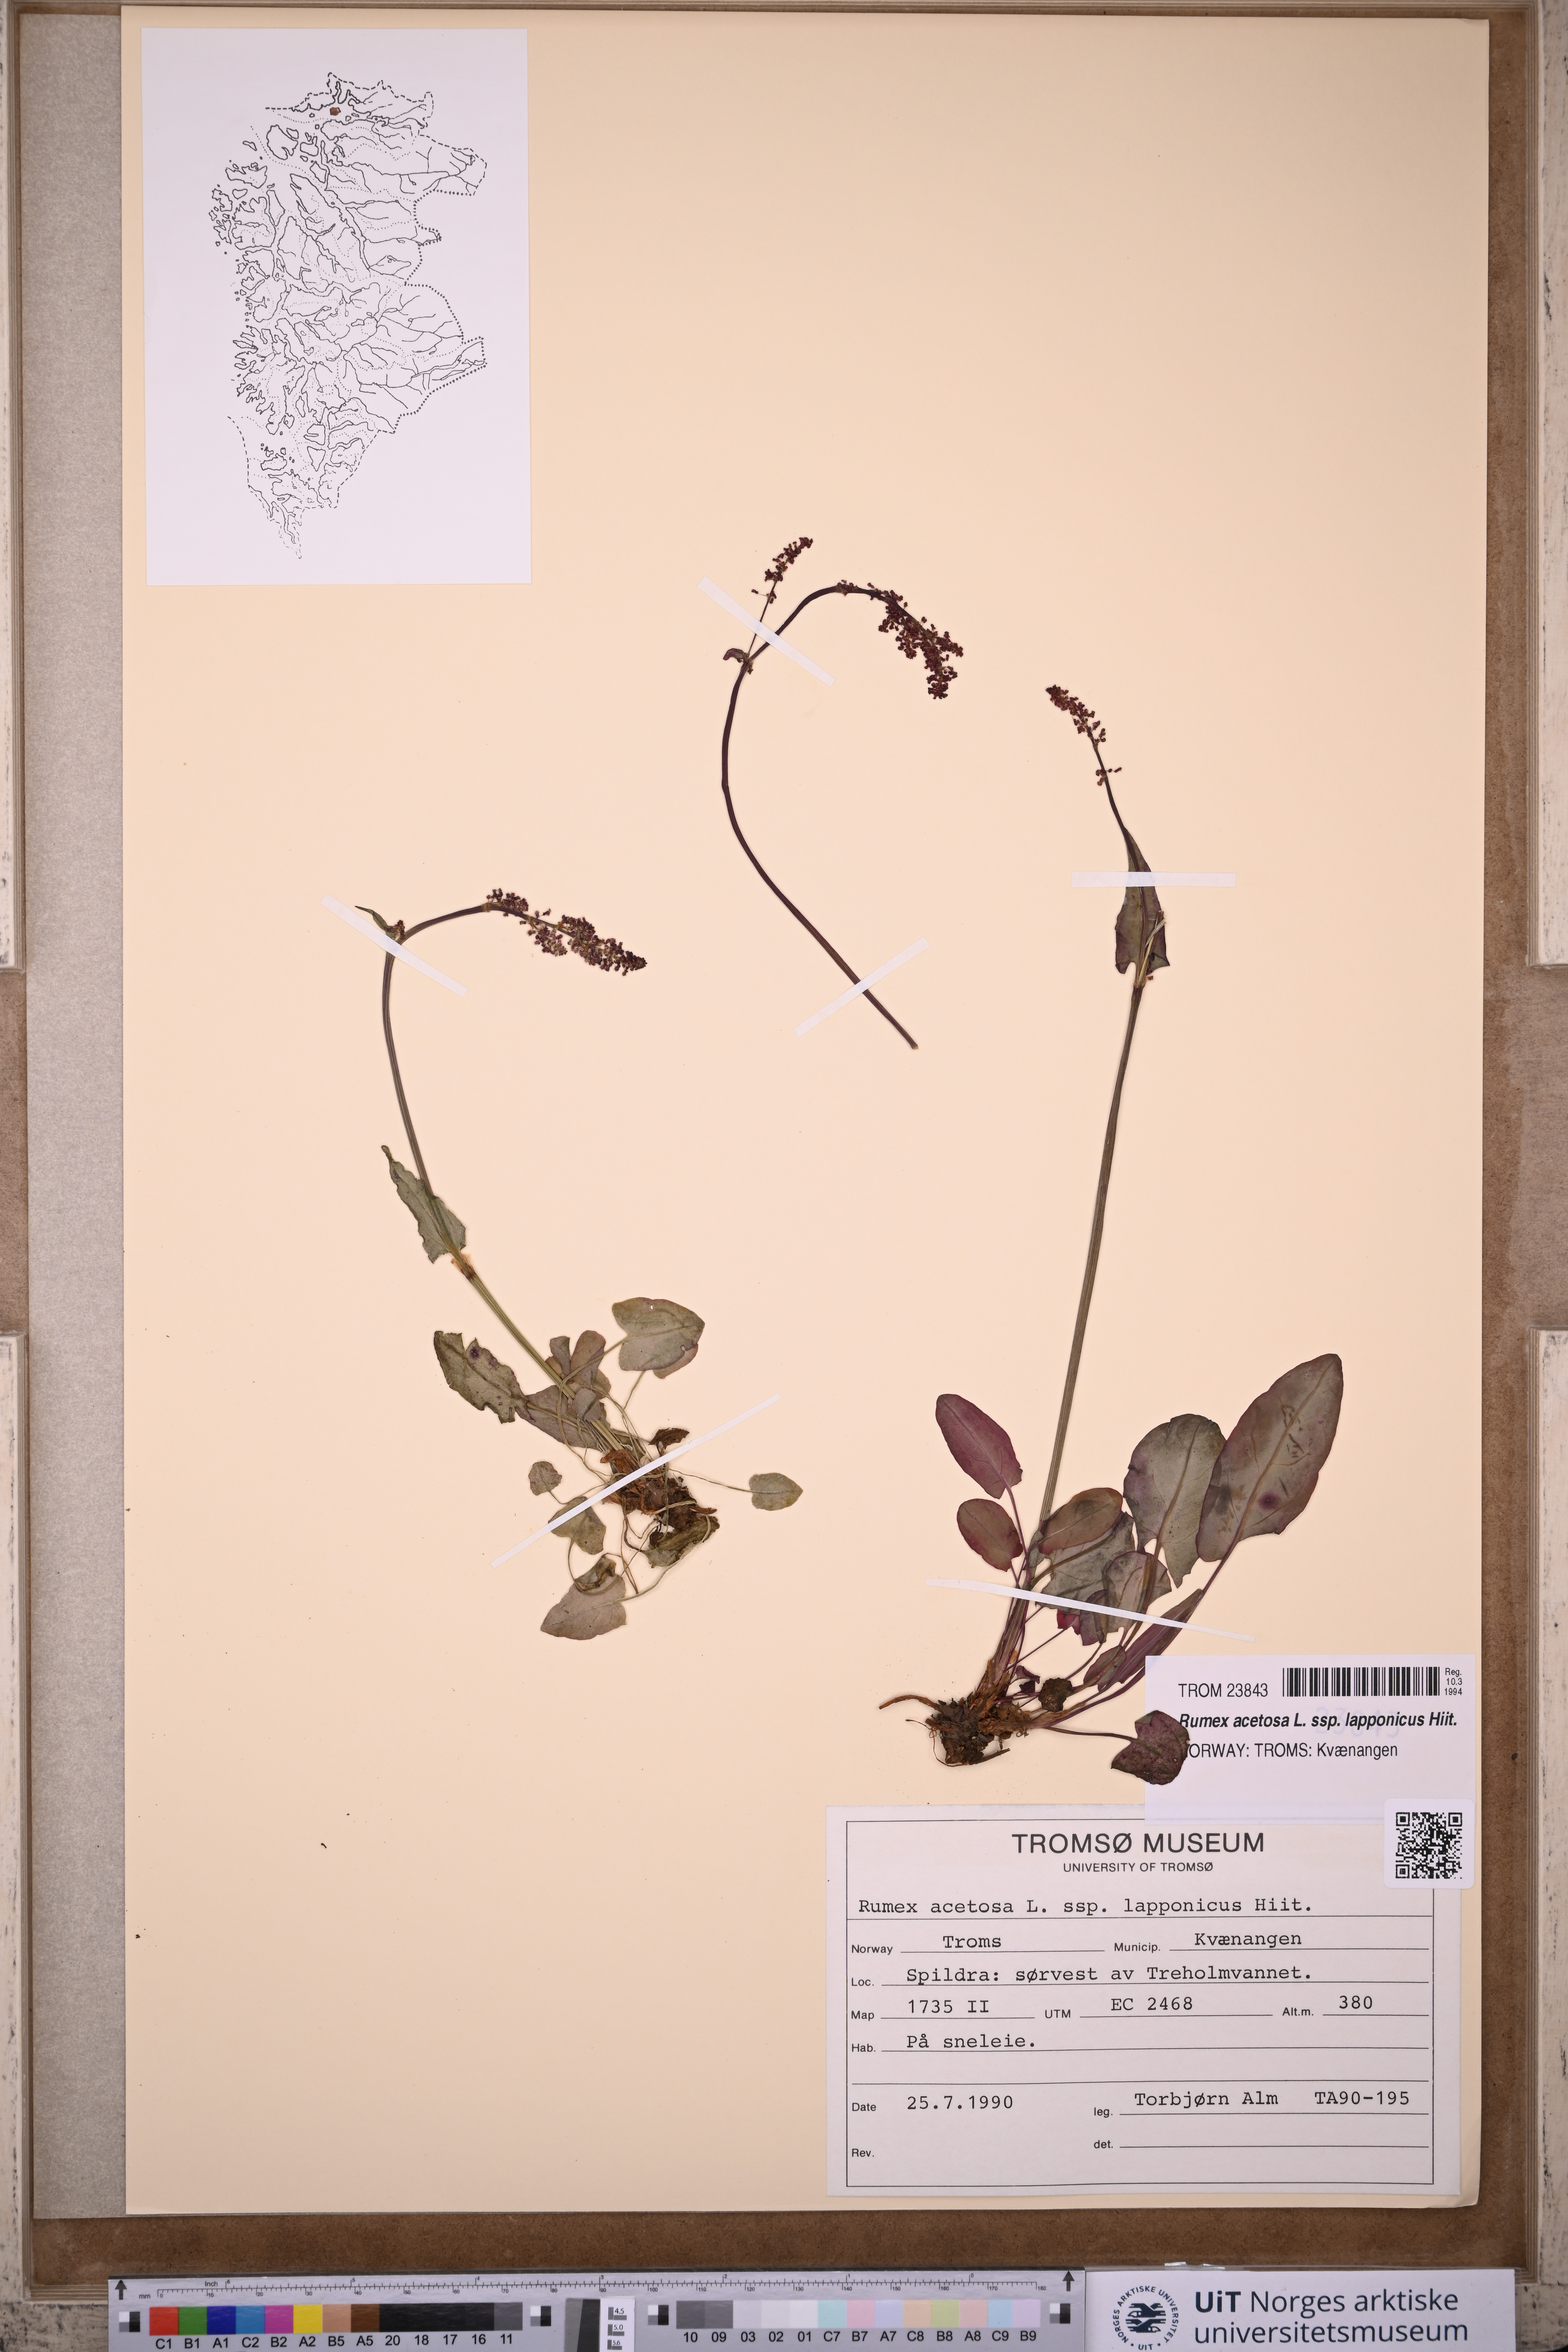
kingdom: Plantae
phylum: Tracheophyta
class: Magnoliopsida
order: Caryophyllales
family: Polygonaceae
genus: Rumex
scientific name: Rumex lapponicus
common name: Lapland mountain sorrel
